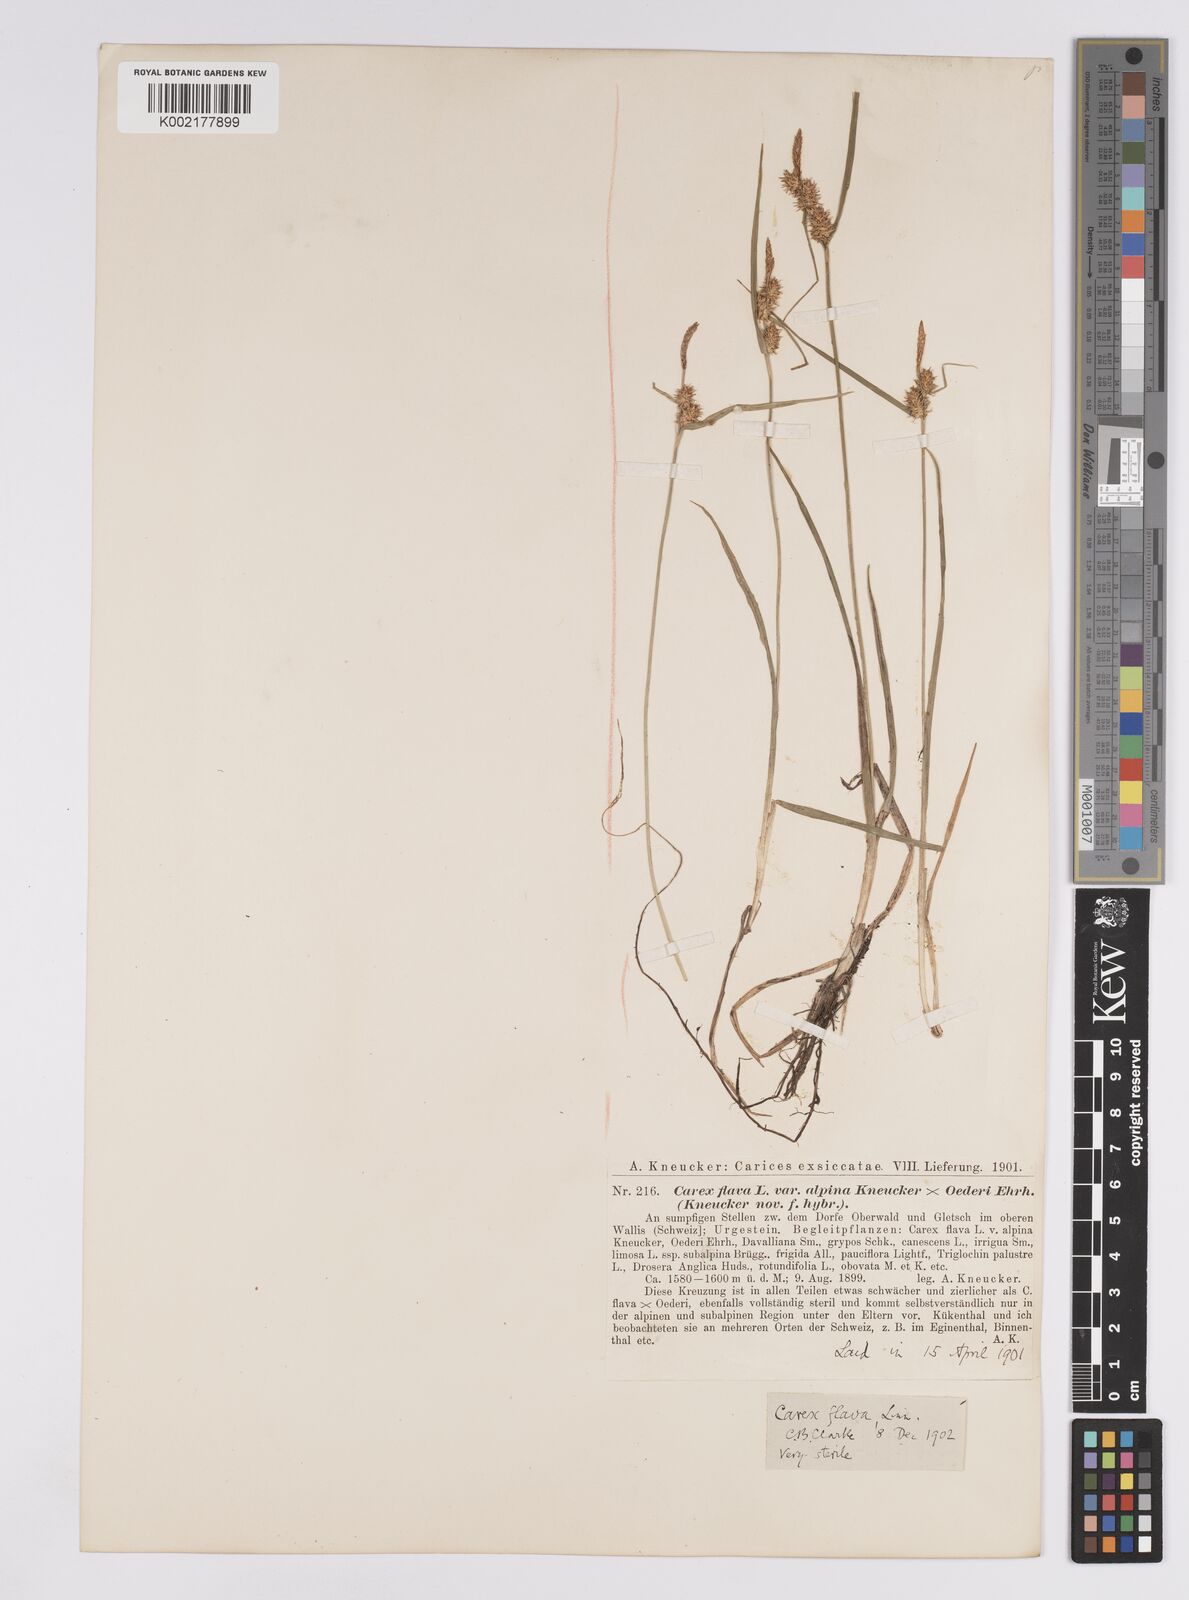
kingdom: Plantae
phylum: Tracheophyta
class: Liliopsida
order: Poales
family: Cyperaceae
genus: Carex
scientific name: Carex flava
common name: Large yellow-sedge
